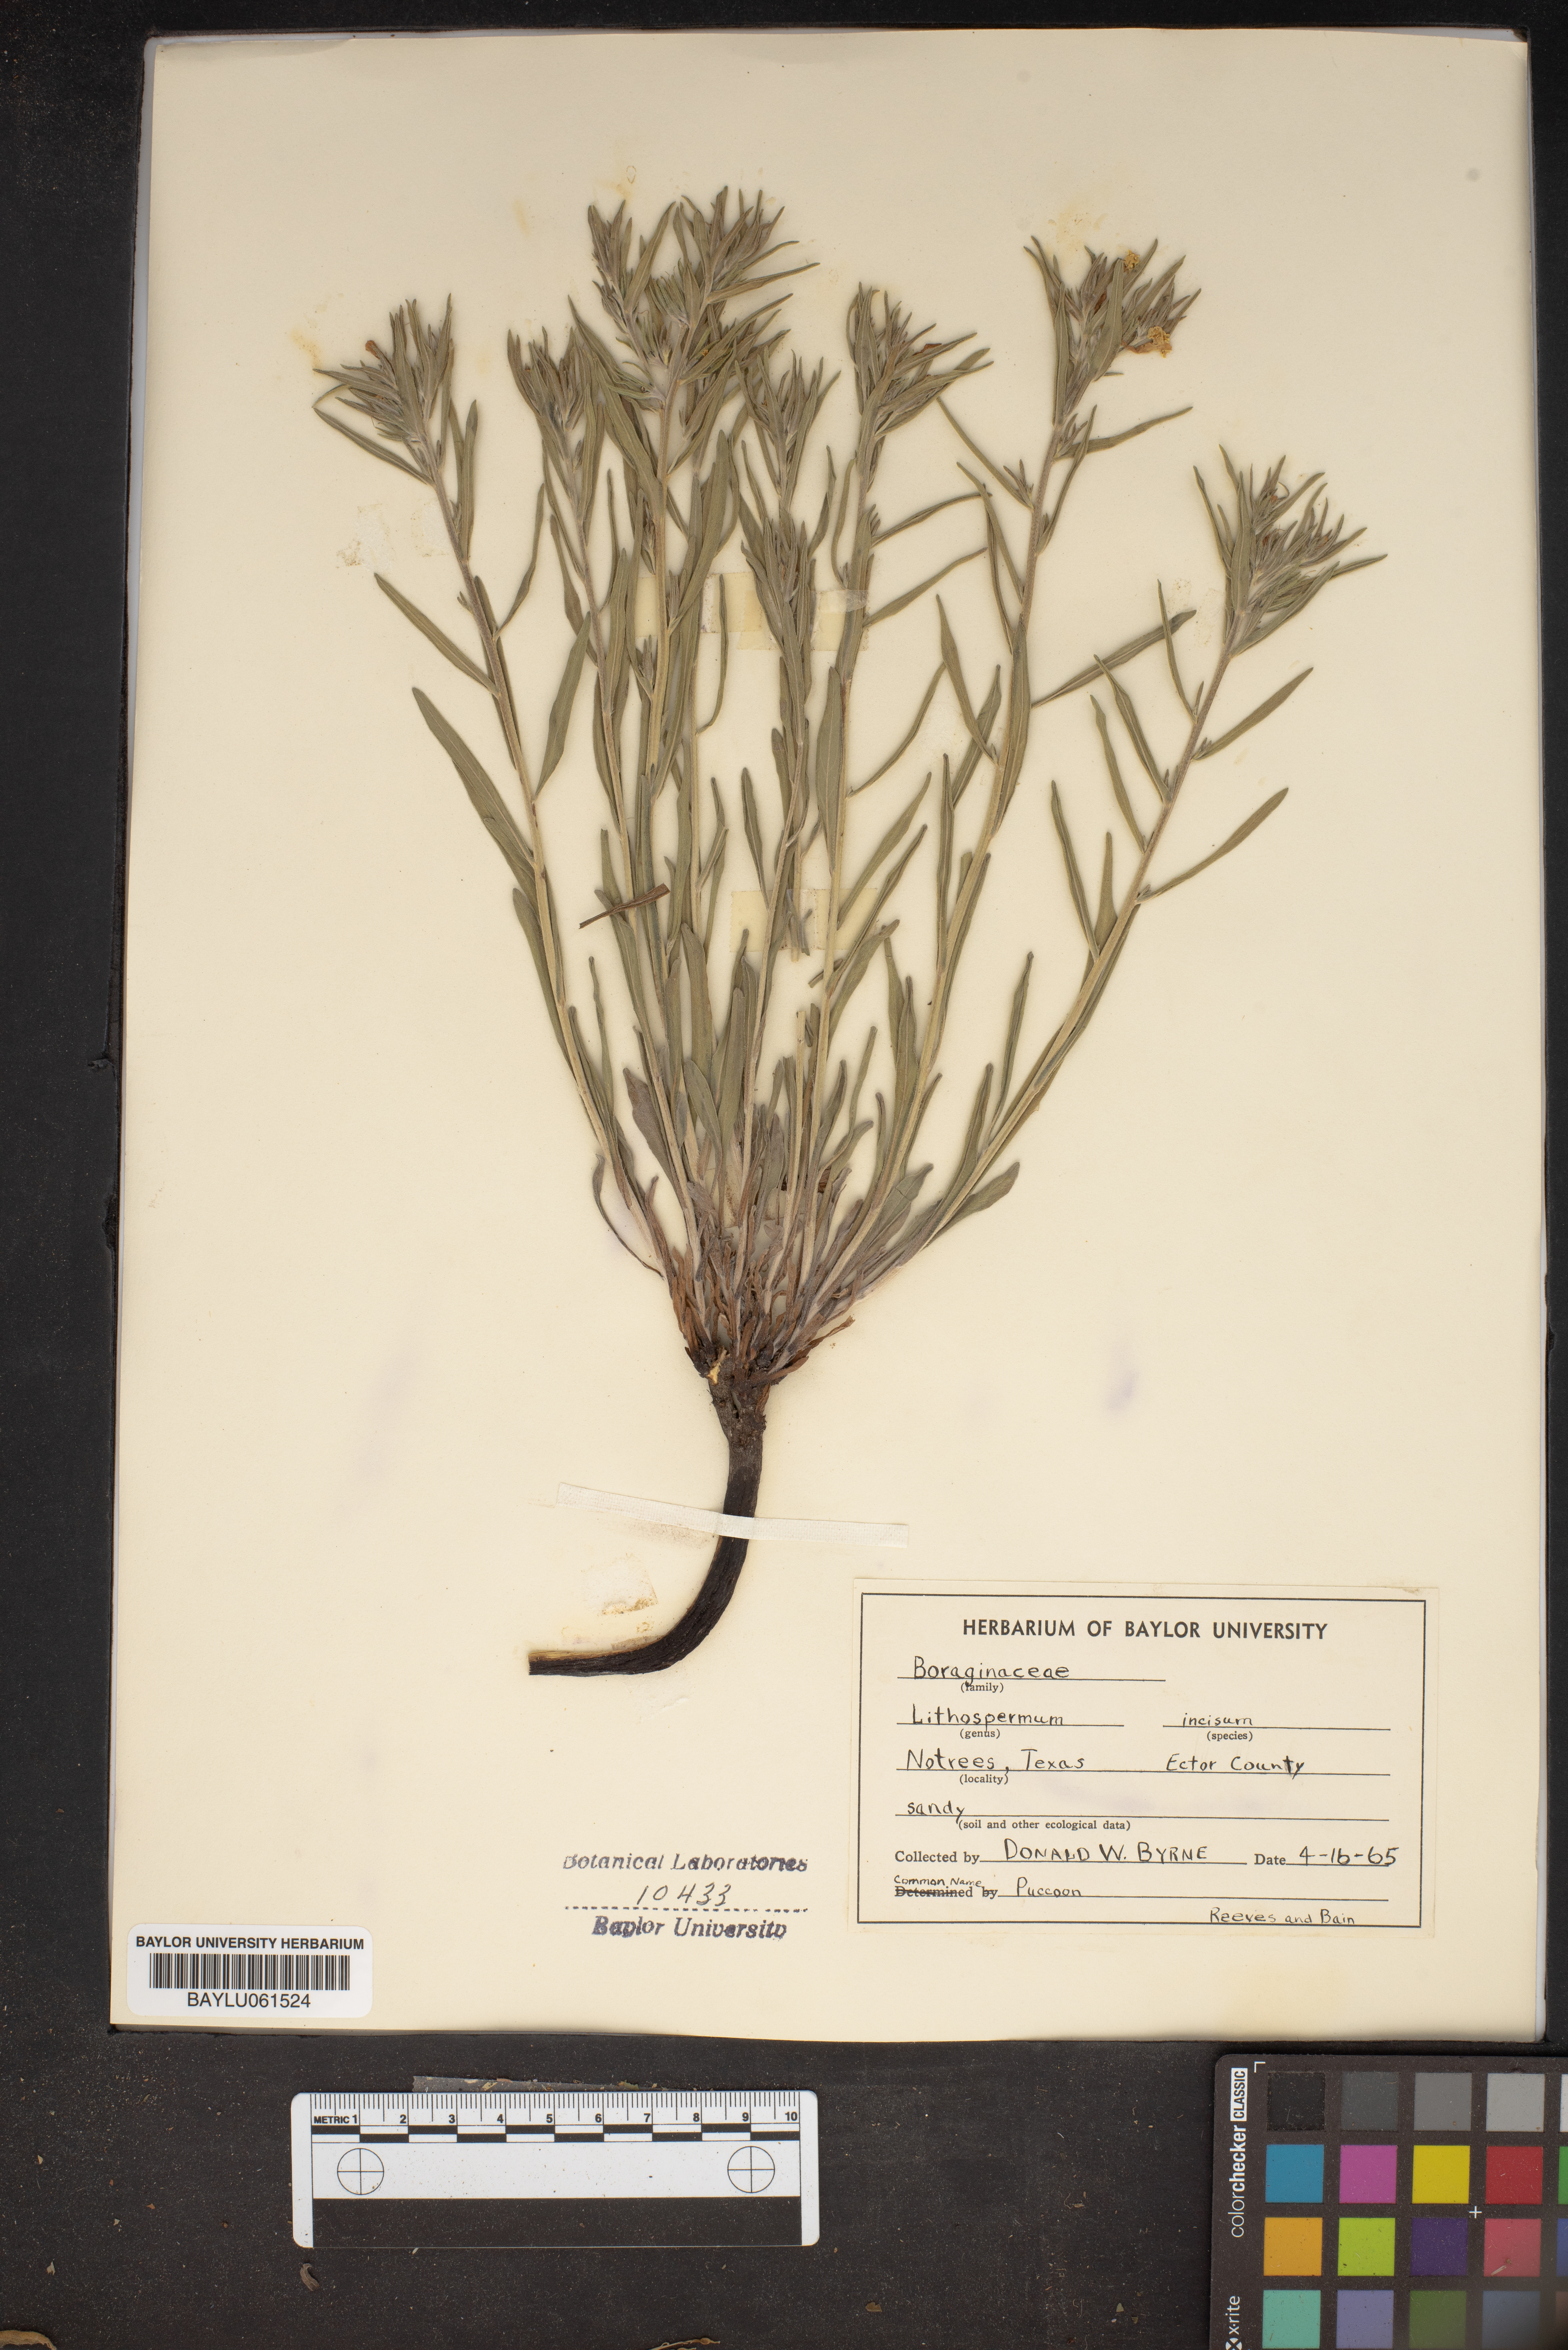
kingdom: Plantae
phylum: Tracheophyta
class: Magnoliopsida
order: Boraginales
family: Boraginaceae
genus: Lithospermum
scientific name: Lithospermum incisum
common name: Fringed gromwell
